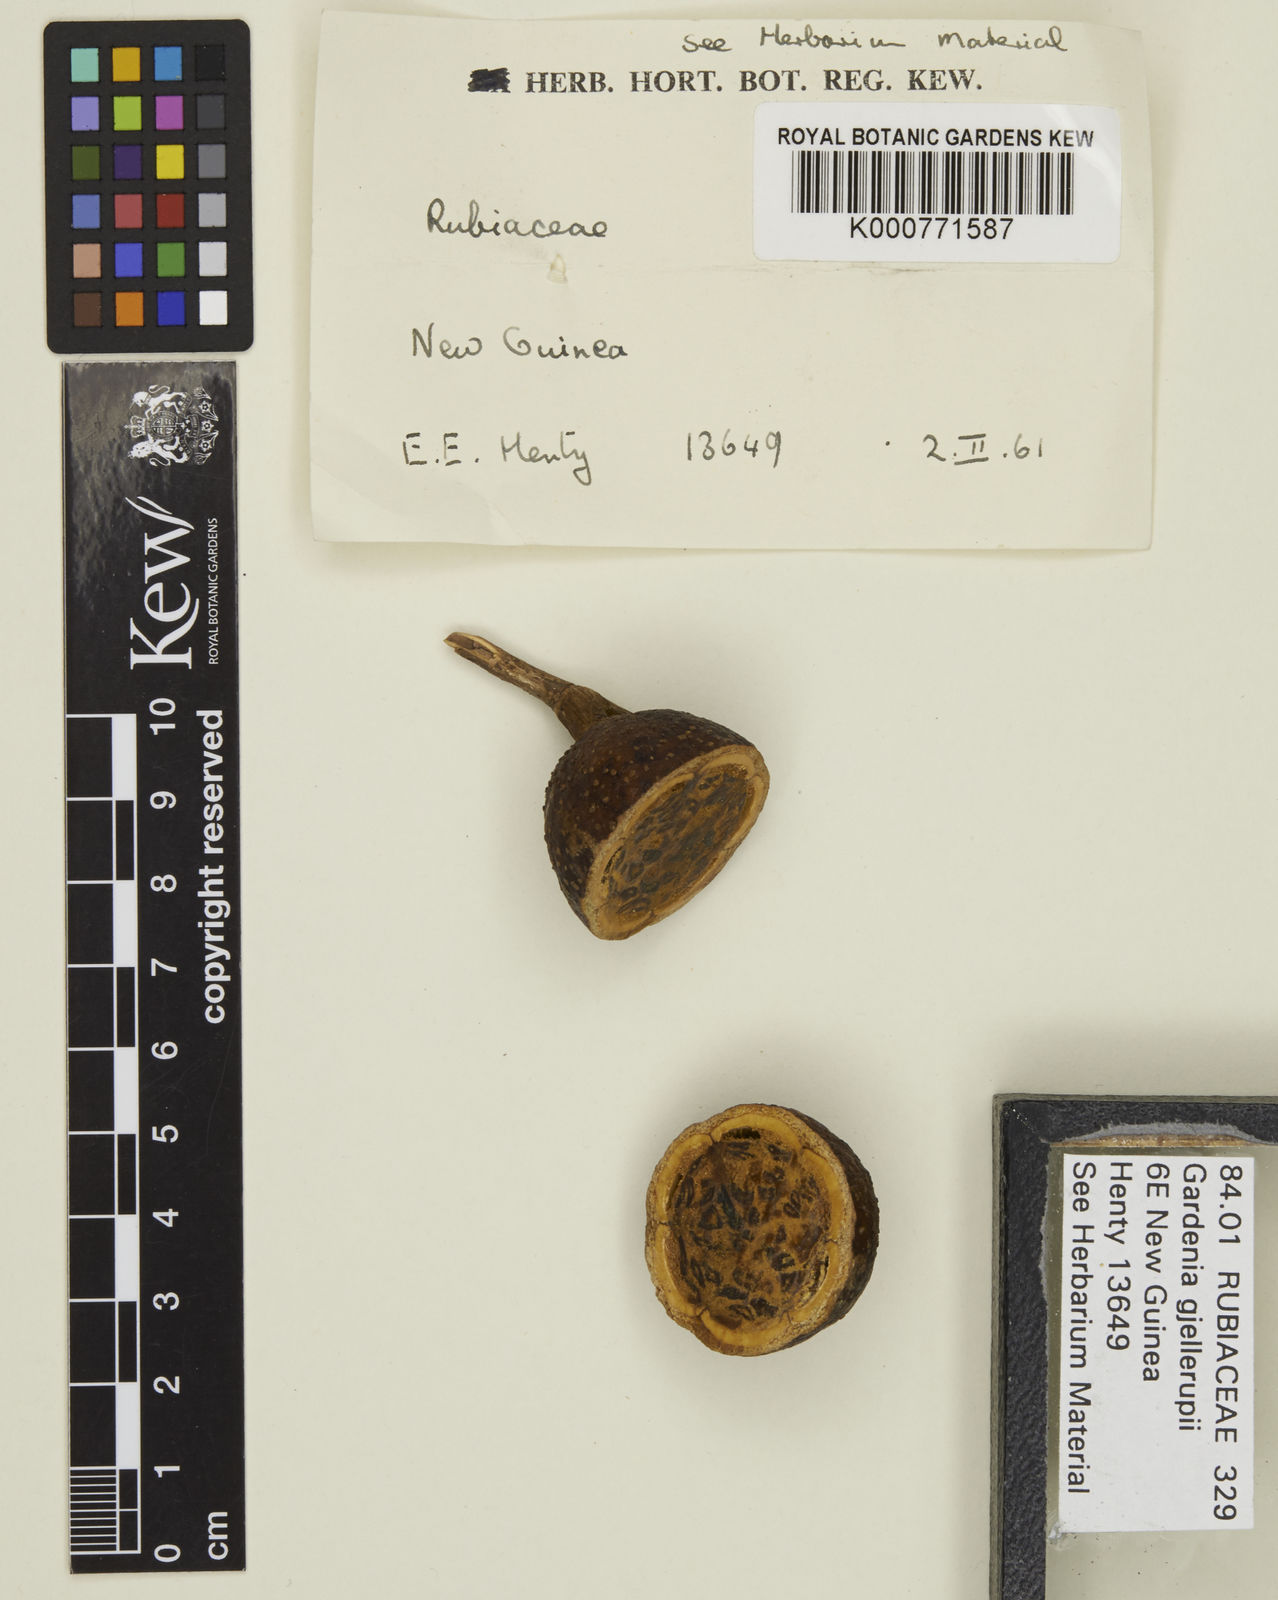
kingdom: Plantae
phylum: Tracheophyta
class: Magnoliopsida
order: Gentianales
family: Rubiaceae
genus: Gardenia
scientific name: Gardenia gjellerupii
